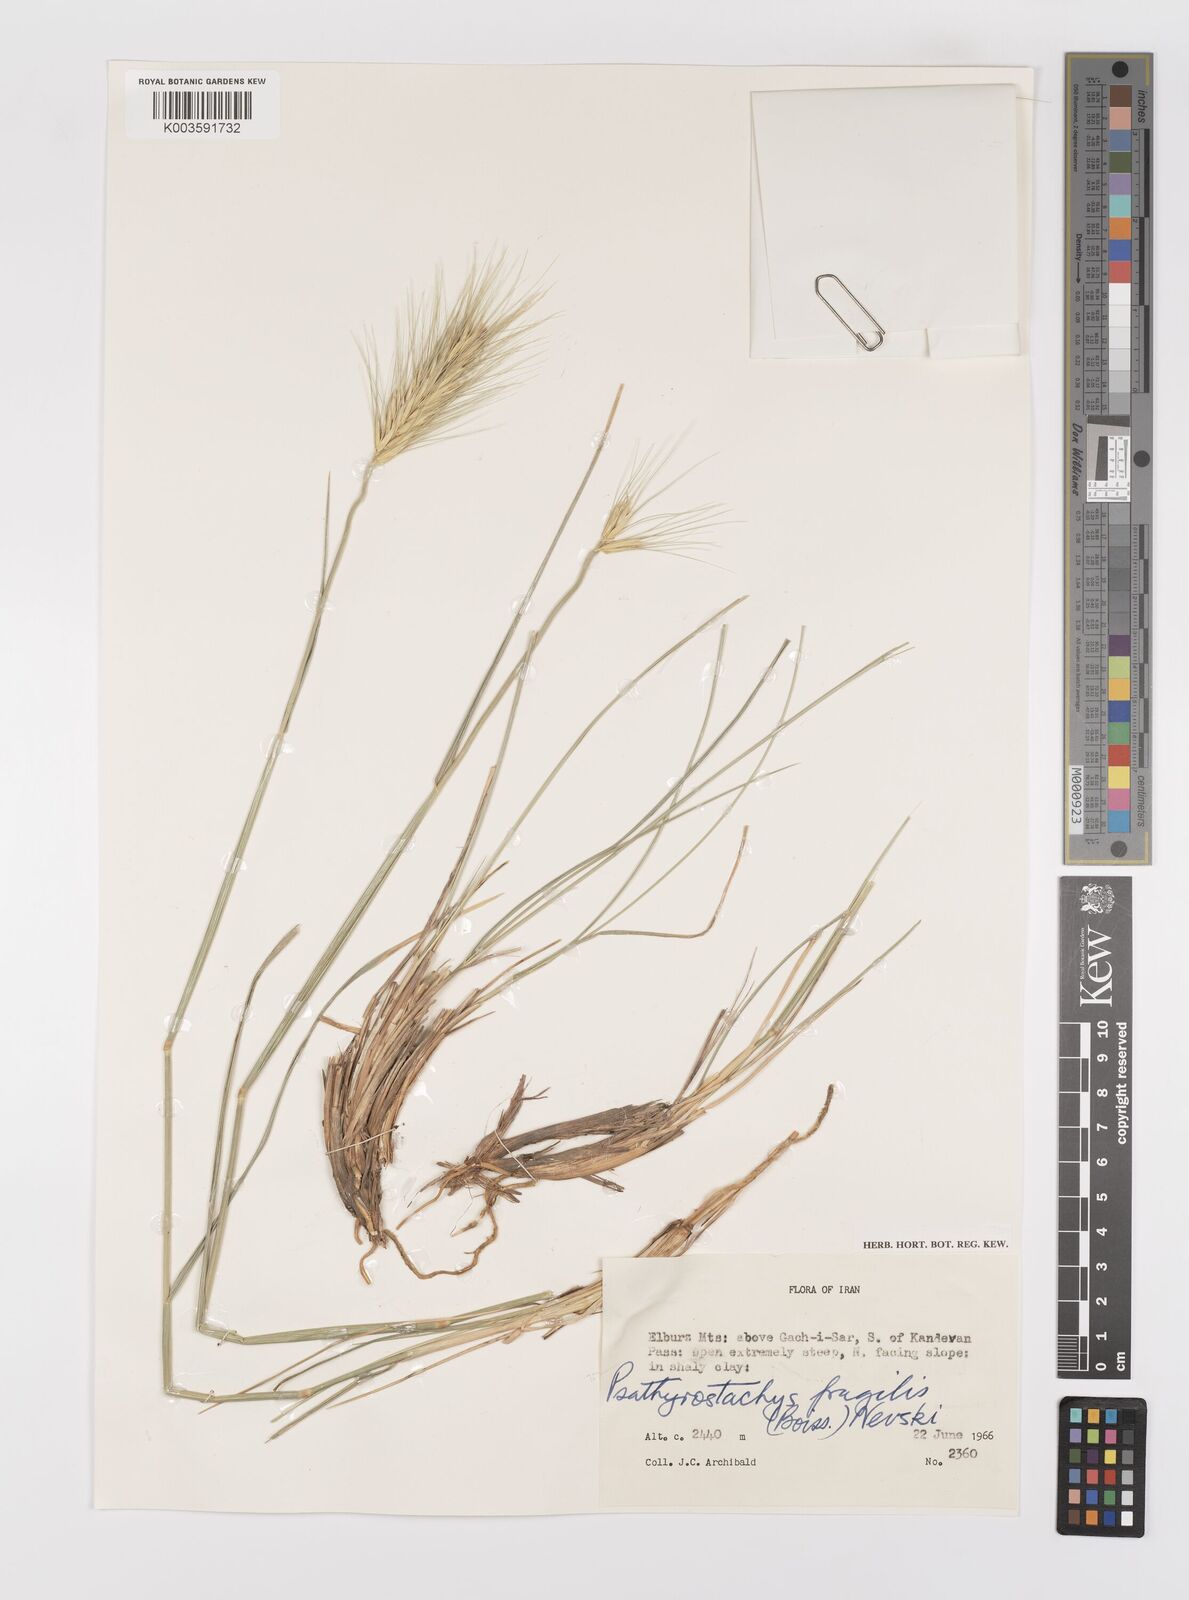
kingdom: Plantae
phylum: Tracheophyta
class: Liliopsida
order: Poales
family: Poaceae
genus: Psathyrostachys
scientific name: Psathyrostachys fragilis
